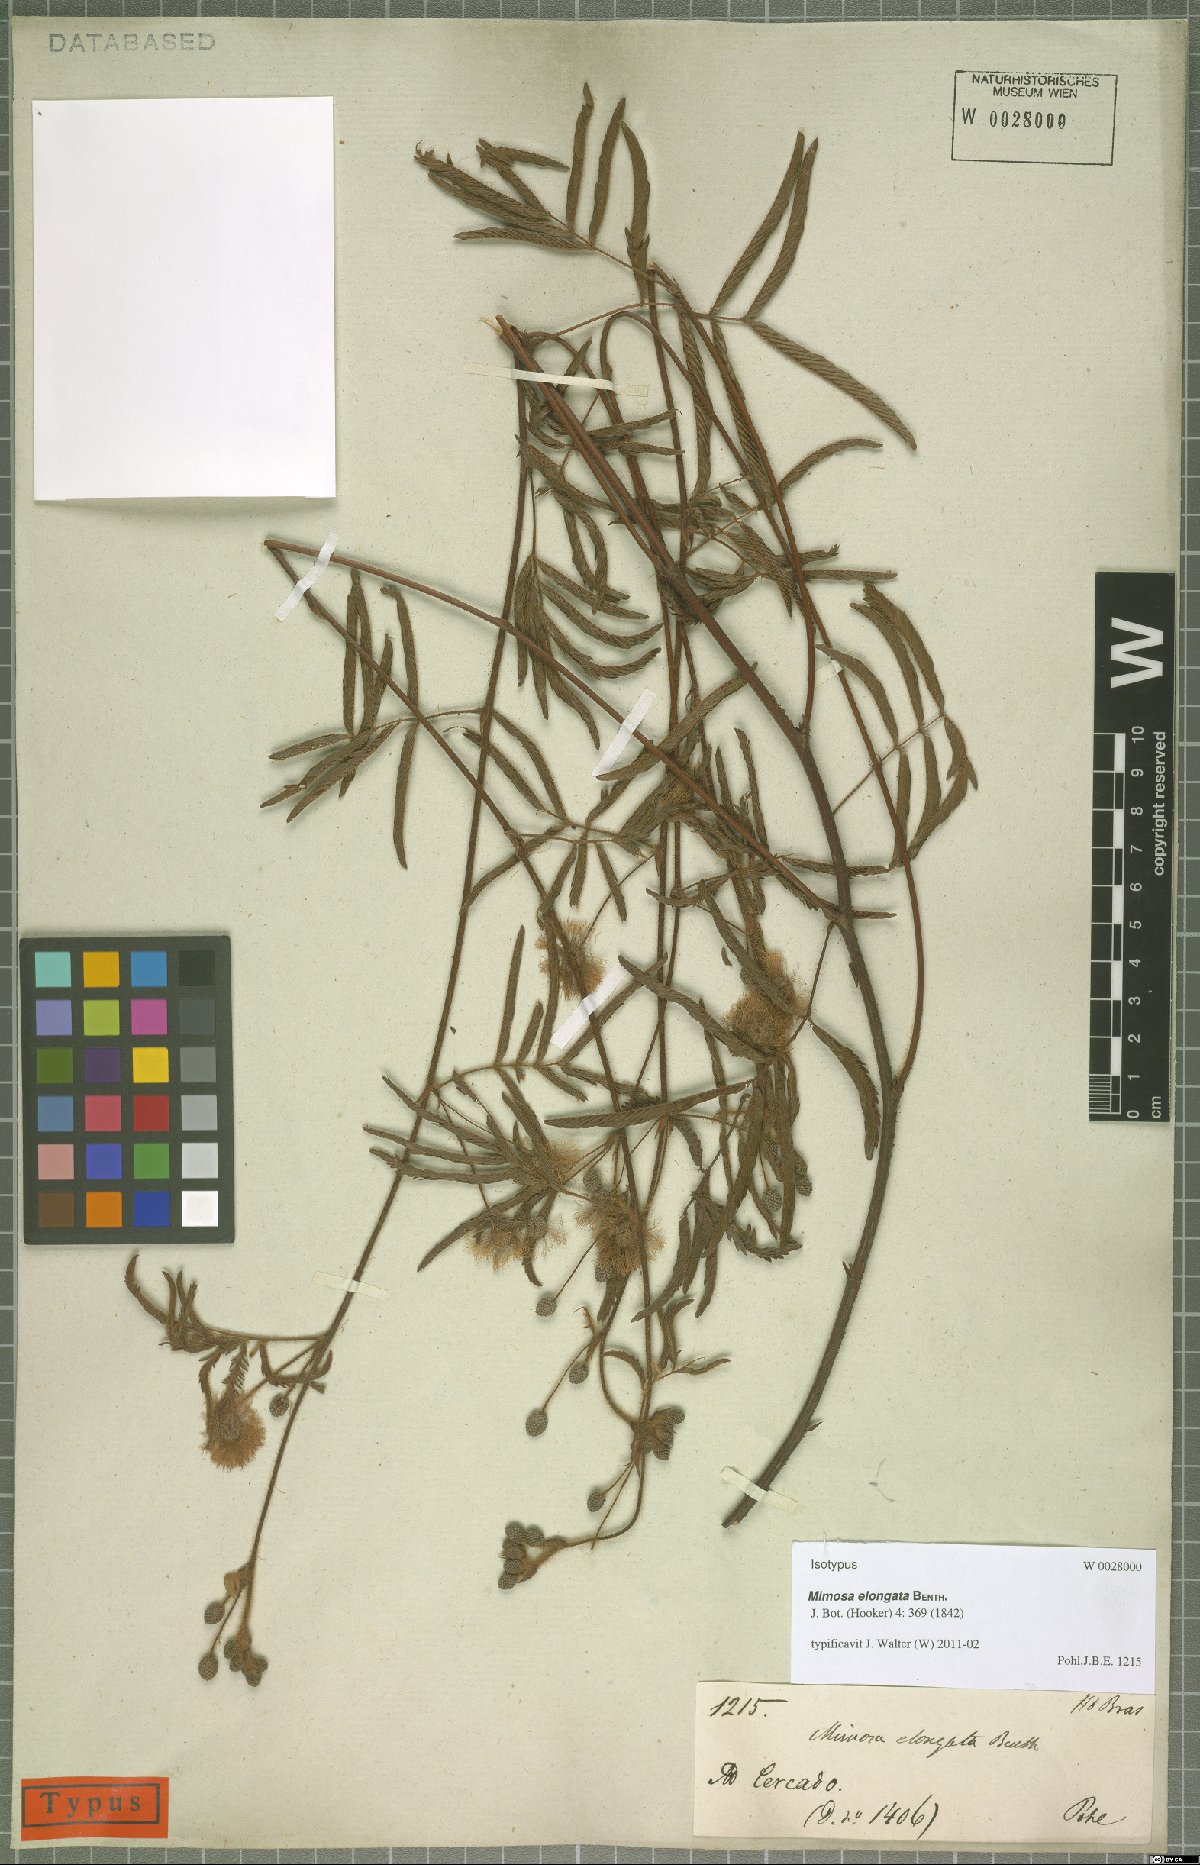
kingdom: Plantae
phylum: Tracheophyta
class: Magnoliopsida
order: Fabales
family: Fabaceae
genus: Mimosa
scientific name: Mimosa distans
